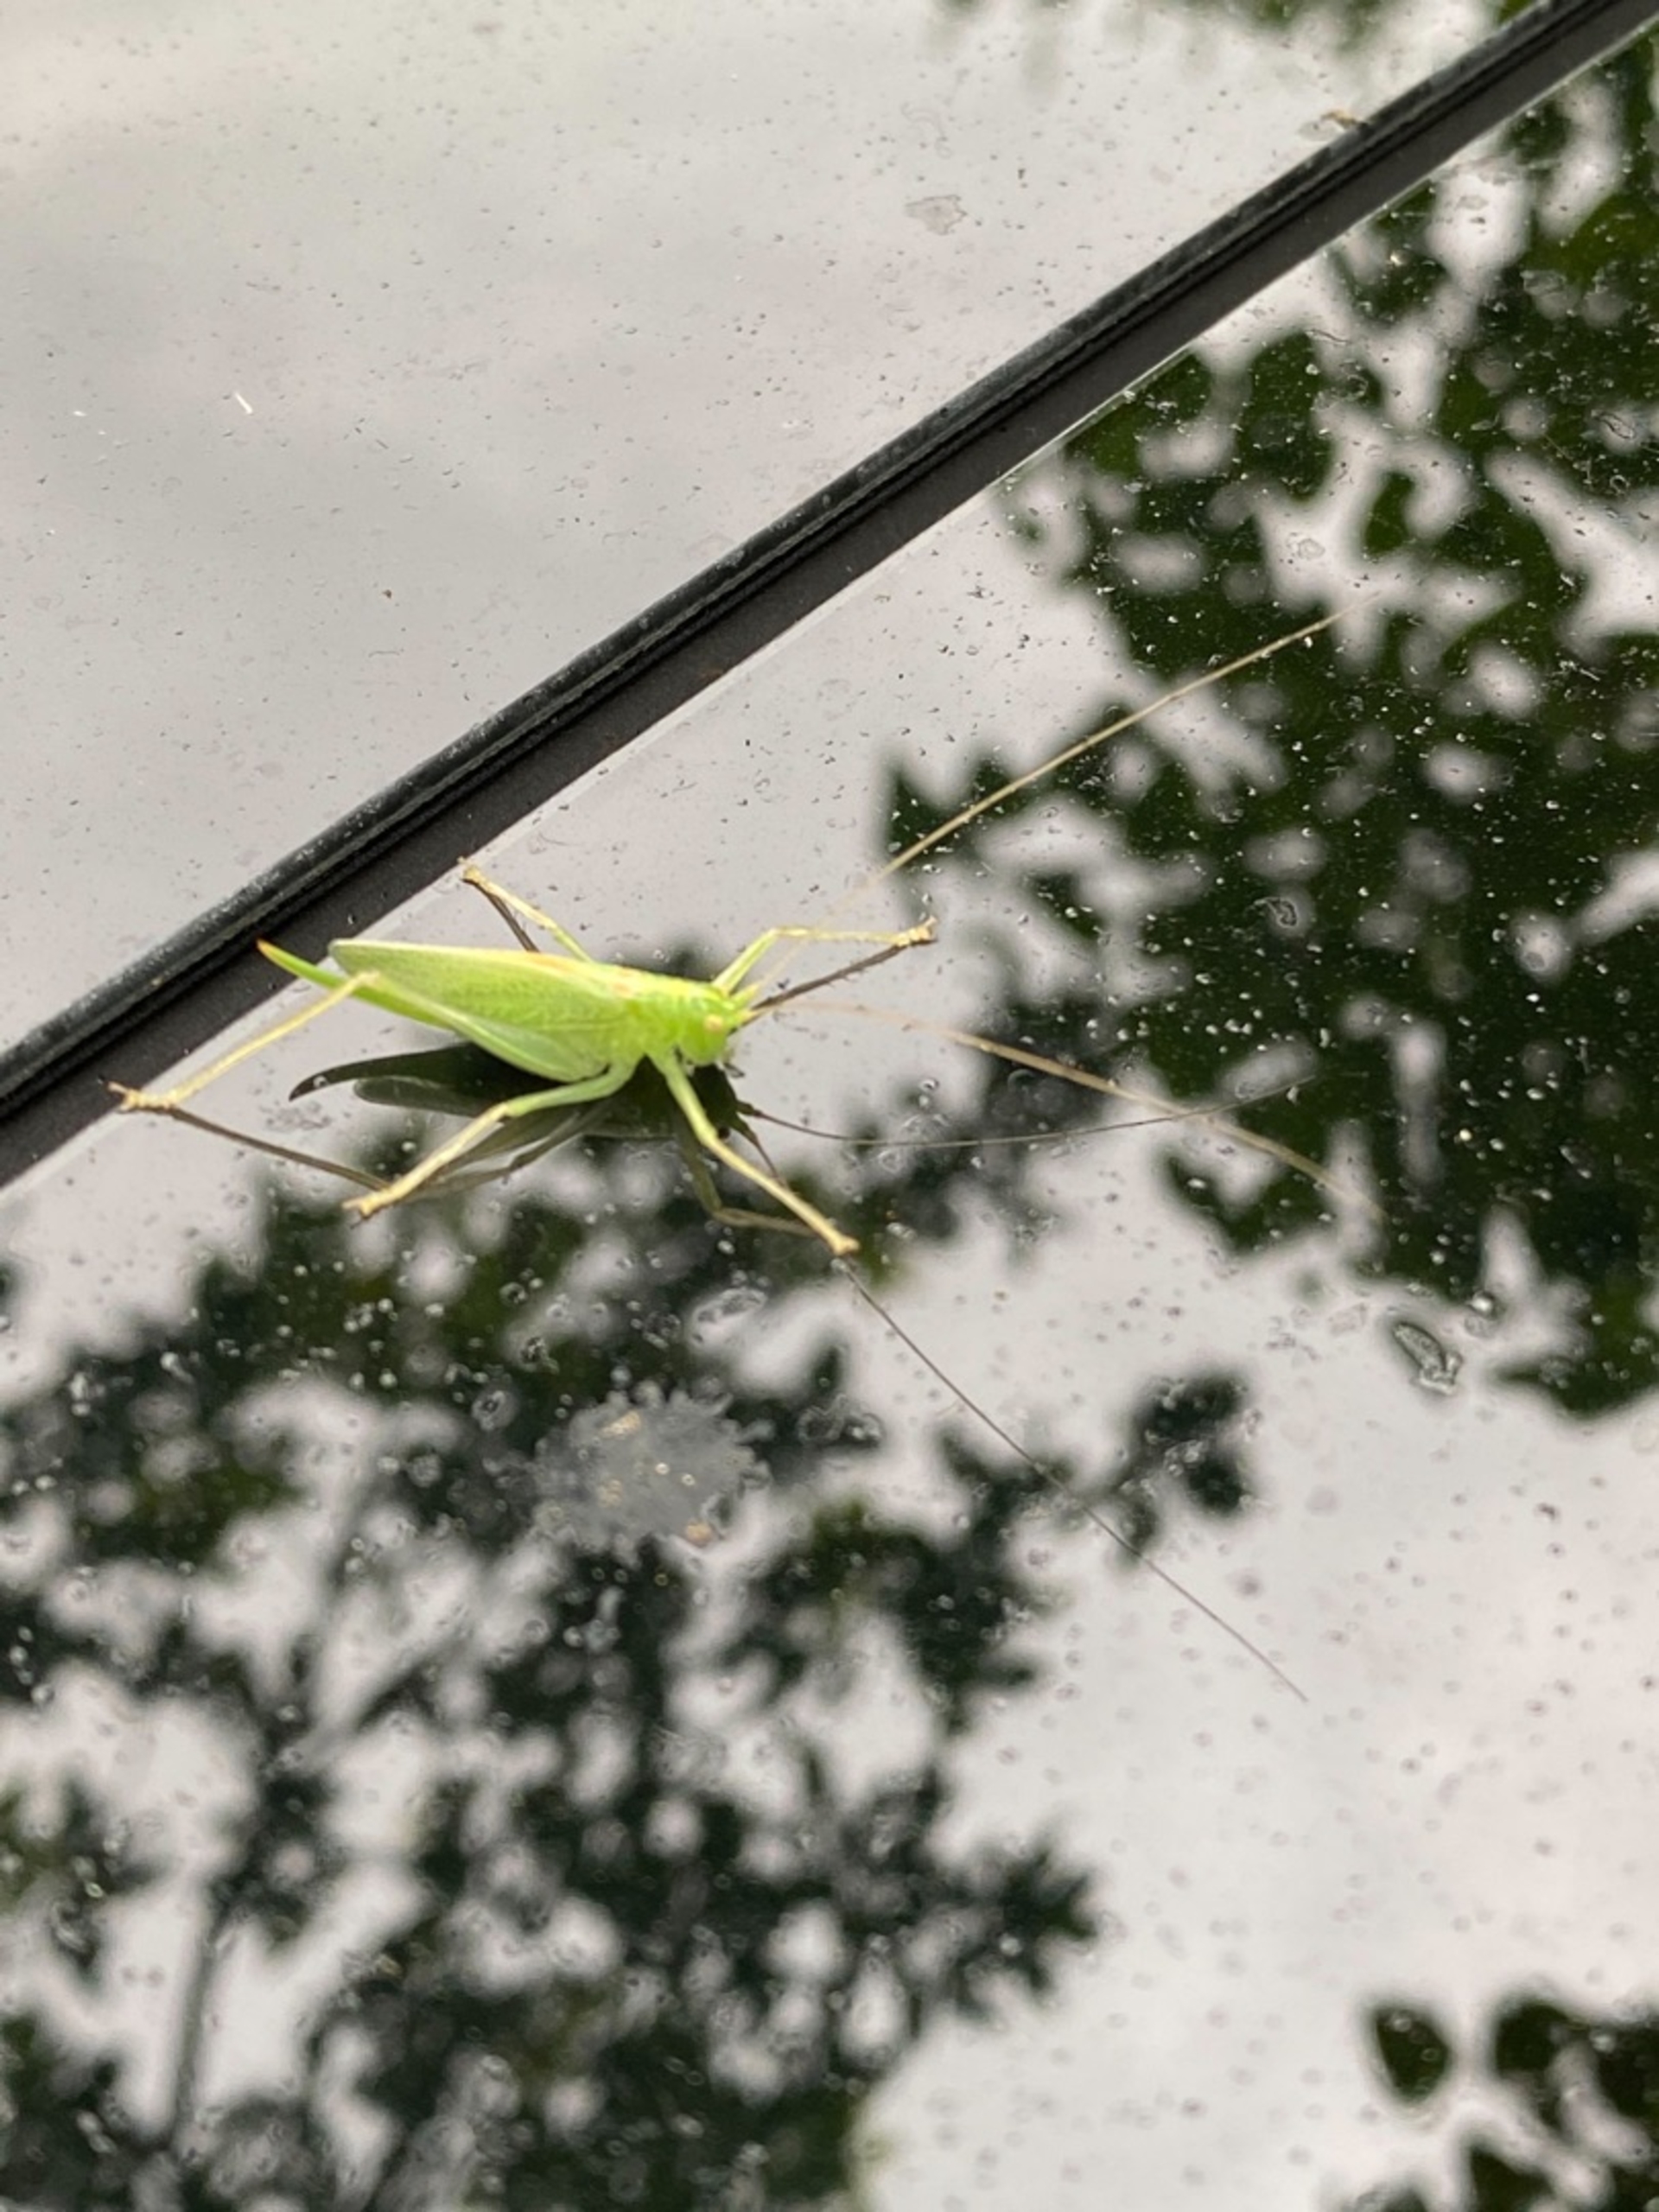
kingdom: Animalia
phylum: Arthropoda
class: Insecta
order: Orthoptera
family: Tettigoniidae
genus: Meconema
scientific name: Meconema thalassinum
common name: Egegræshoppe
